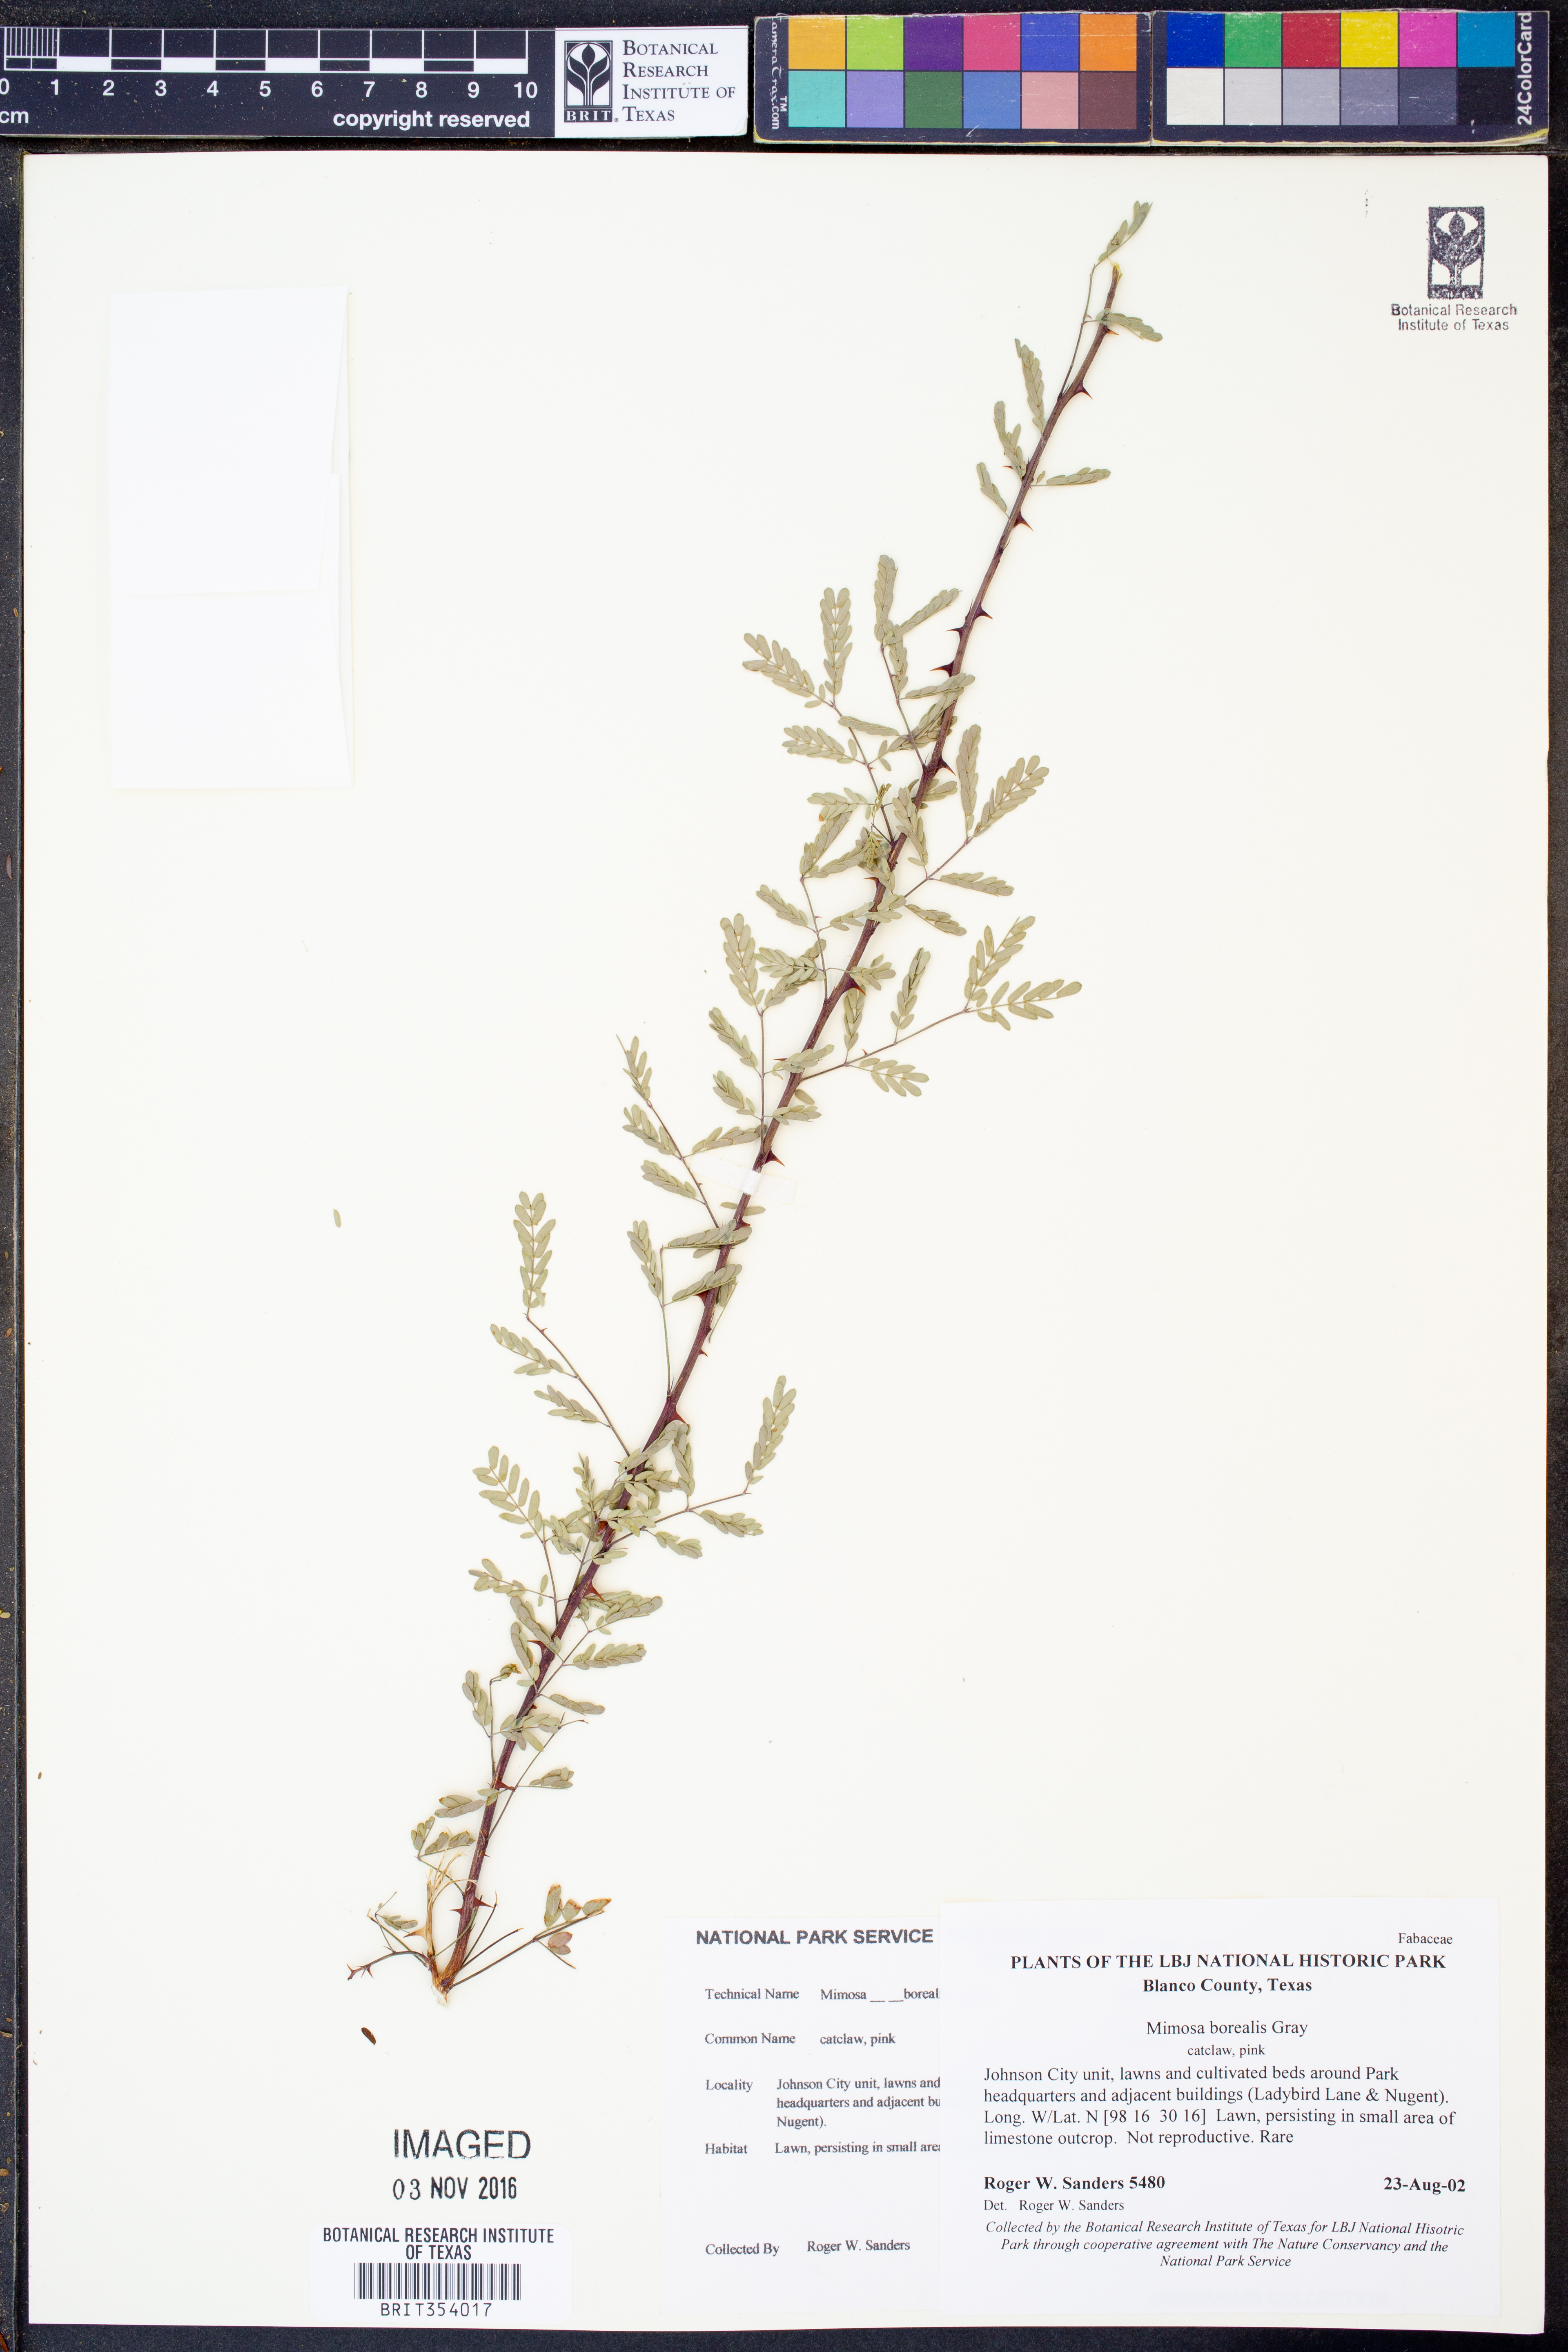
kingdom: Plantae
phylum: Tracheophyta
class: Magnoliopsida
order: Fabales
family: Fabaceae
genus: Mimosa
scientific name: Mimosa borealis
